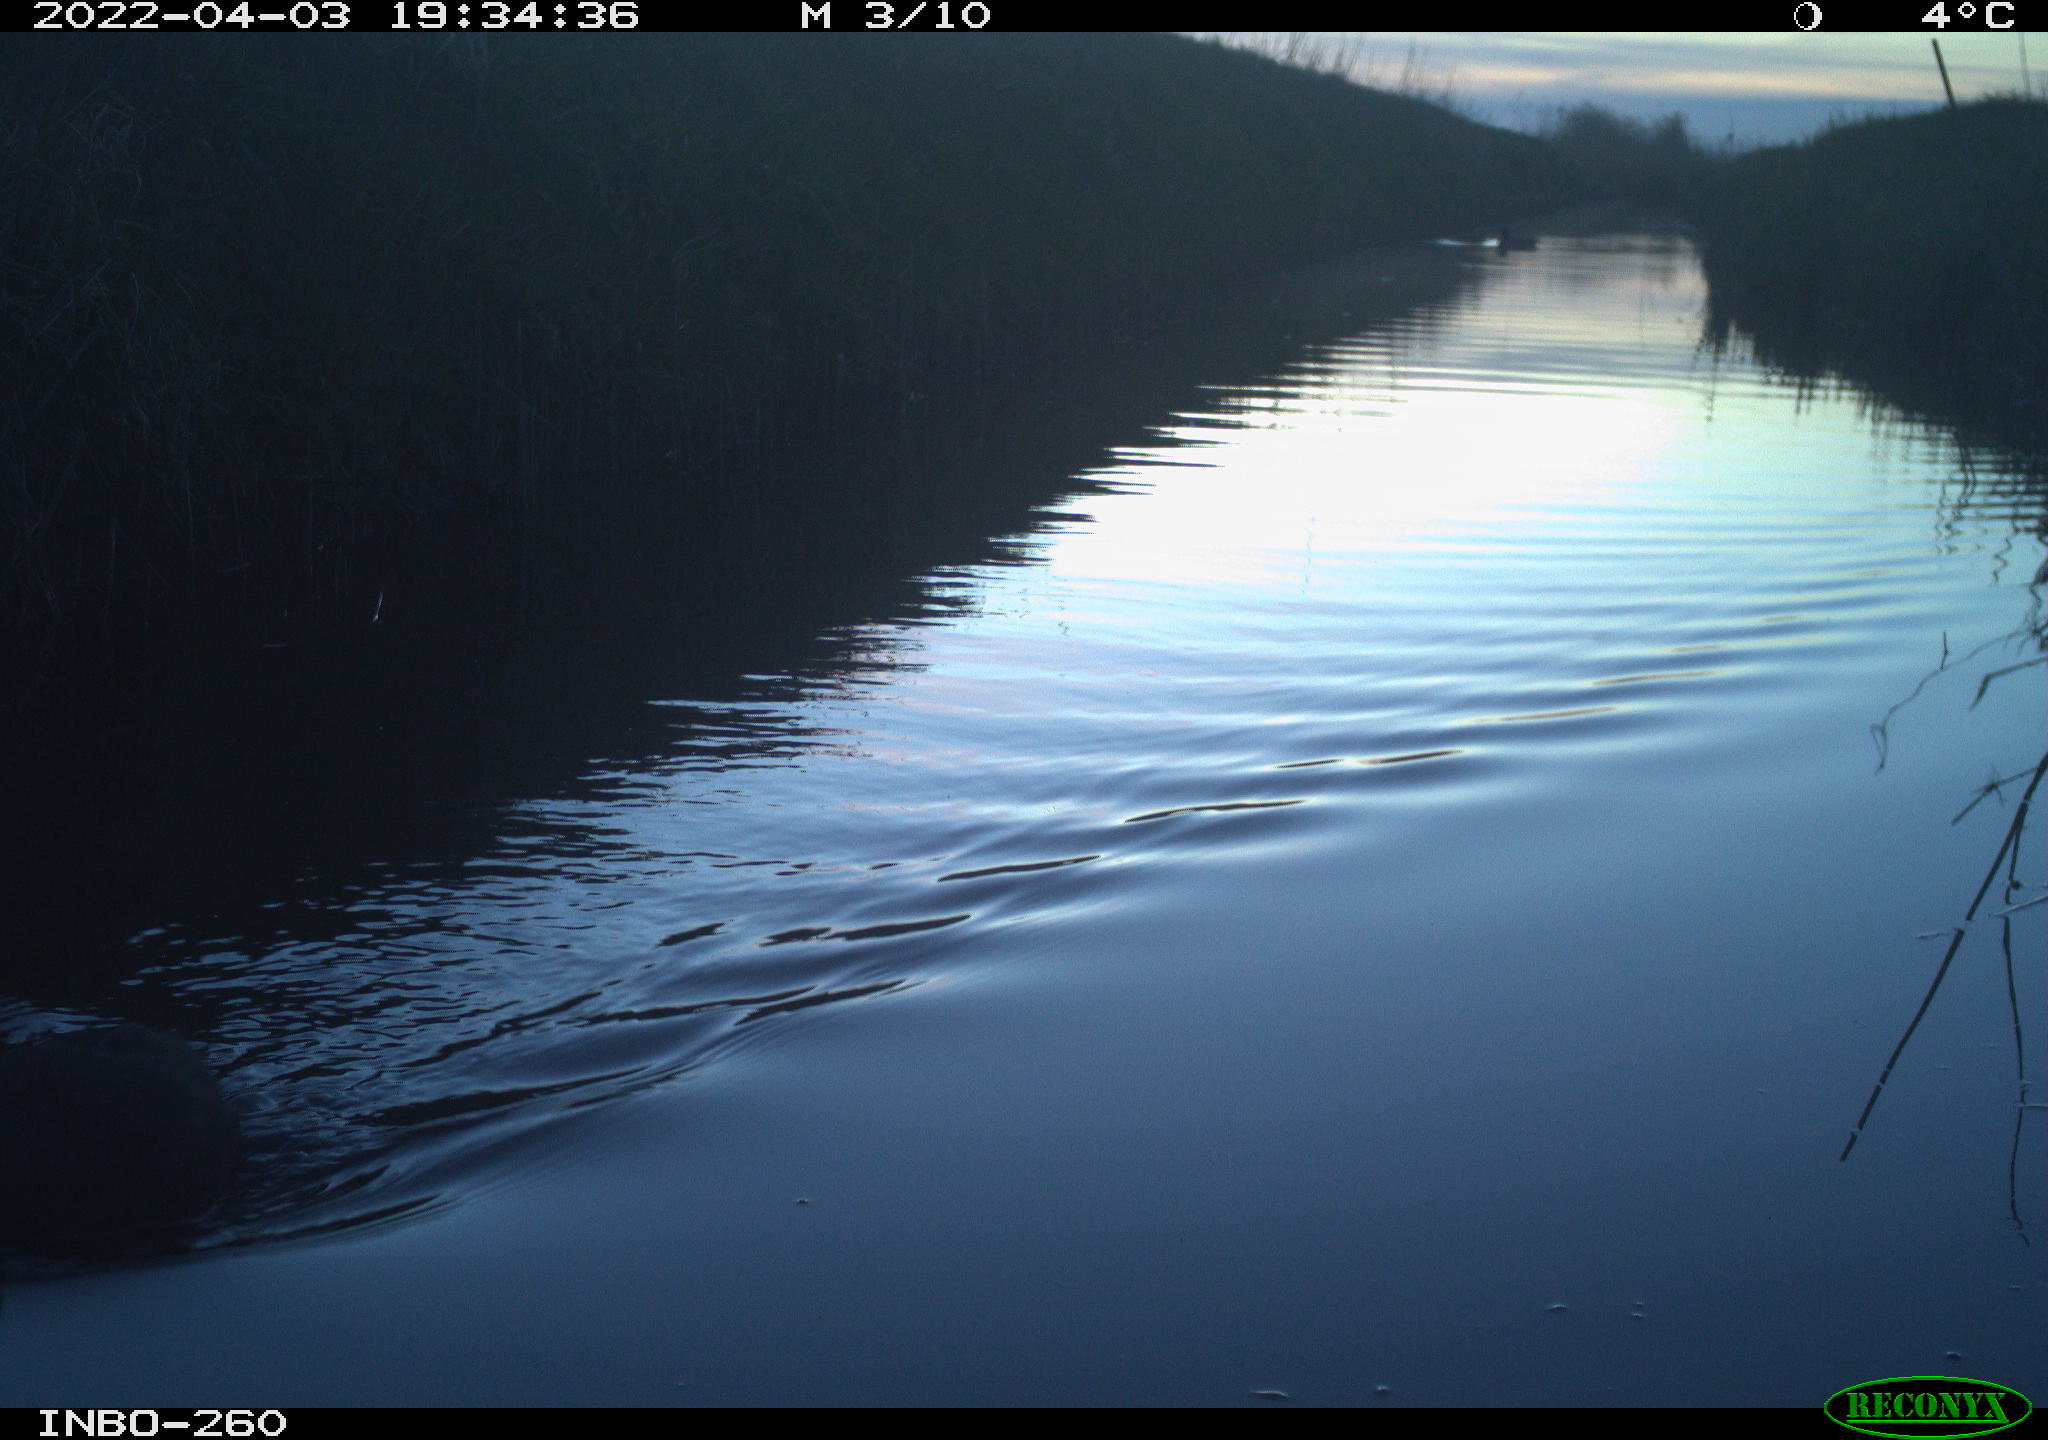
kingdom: Animalia
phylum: Chordata
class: Aves
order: Gruiformes
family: Rallidae
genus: Fulica
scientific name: Fulica atra
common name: Eurasian coot
